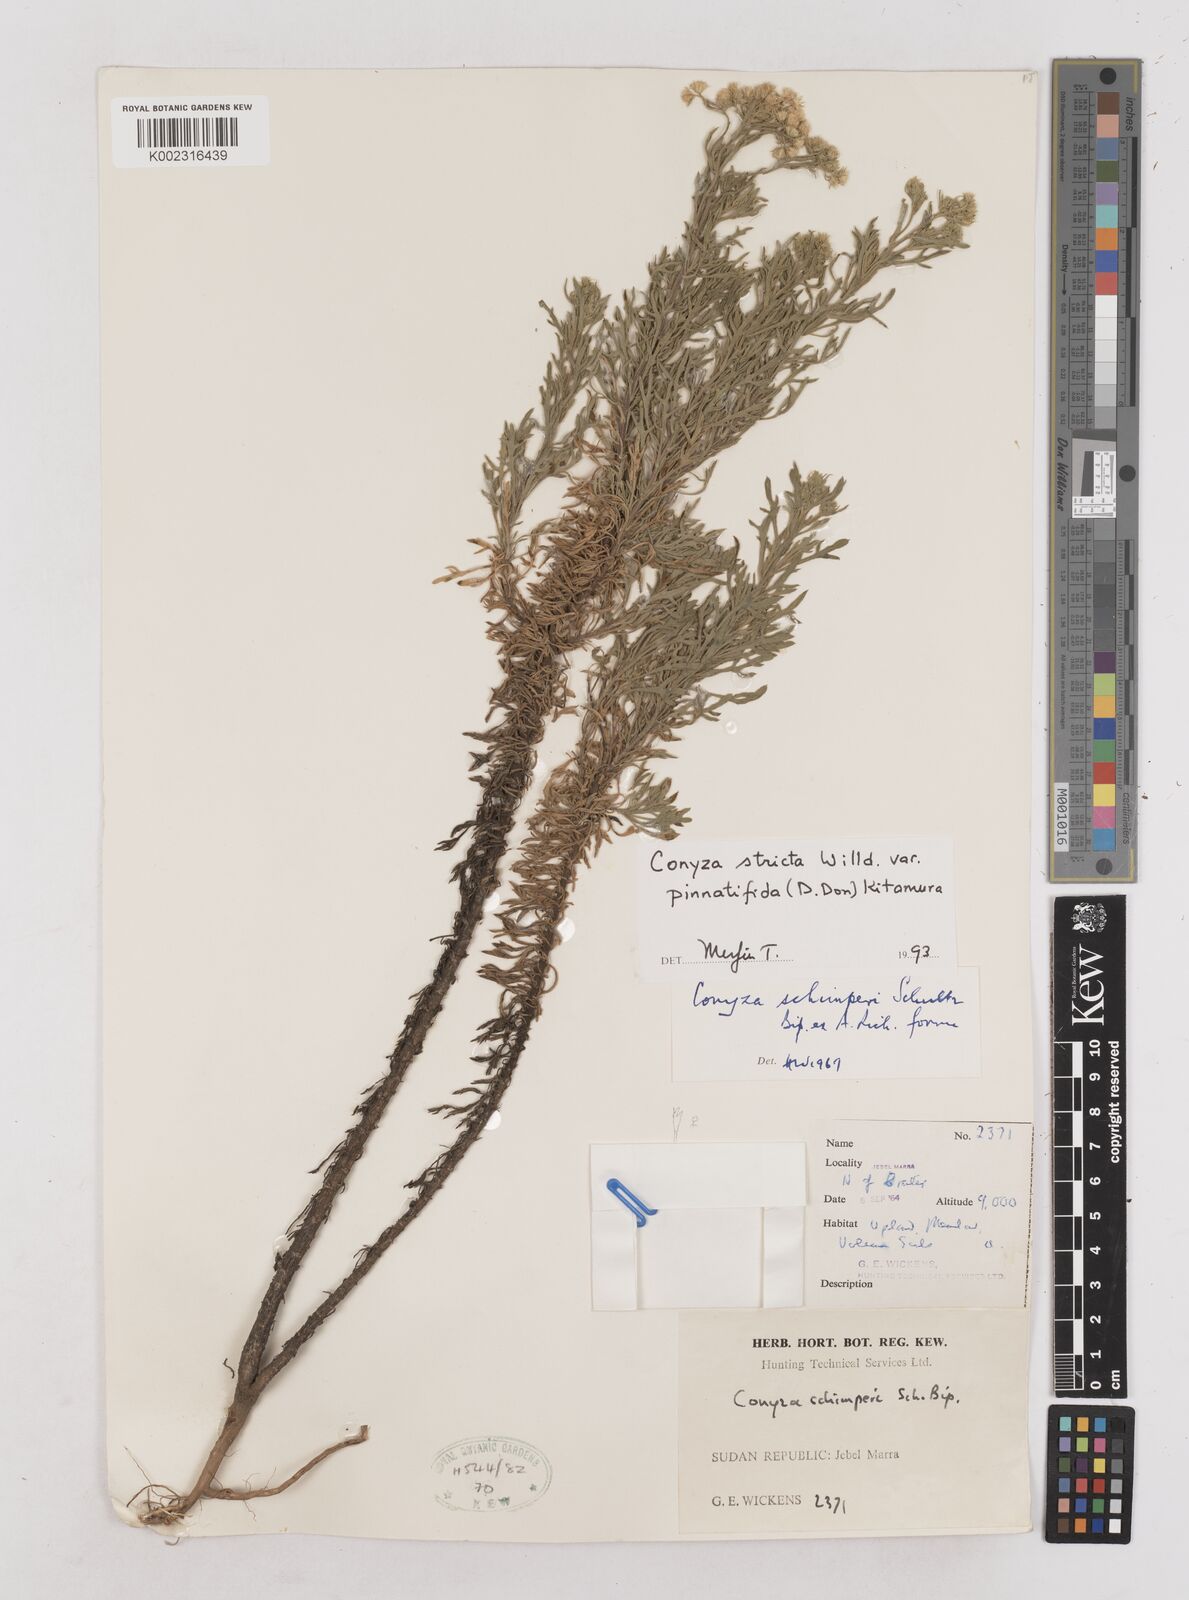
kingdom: Plantae
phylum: Tracheophyta
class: Magnoliopsida
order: Asterales
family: Asteraceae
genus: Nidorella
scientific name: Nidorella triloba
